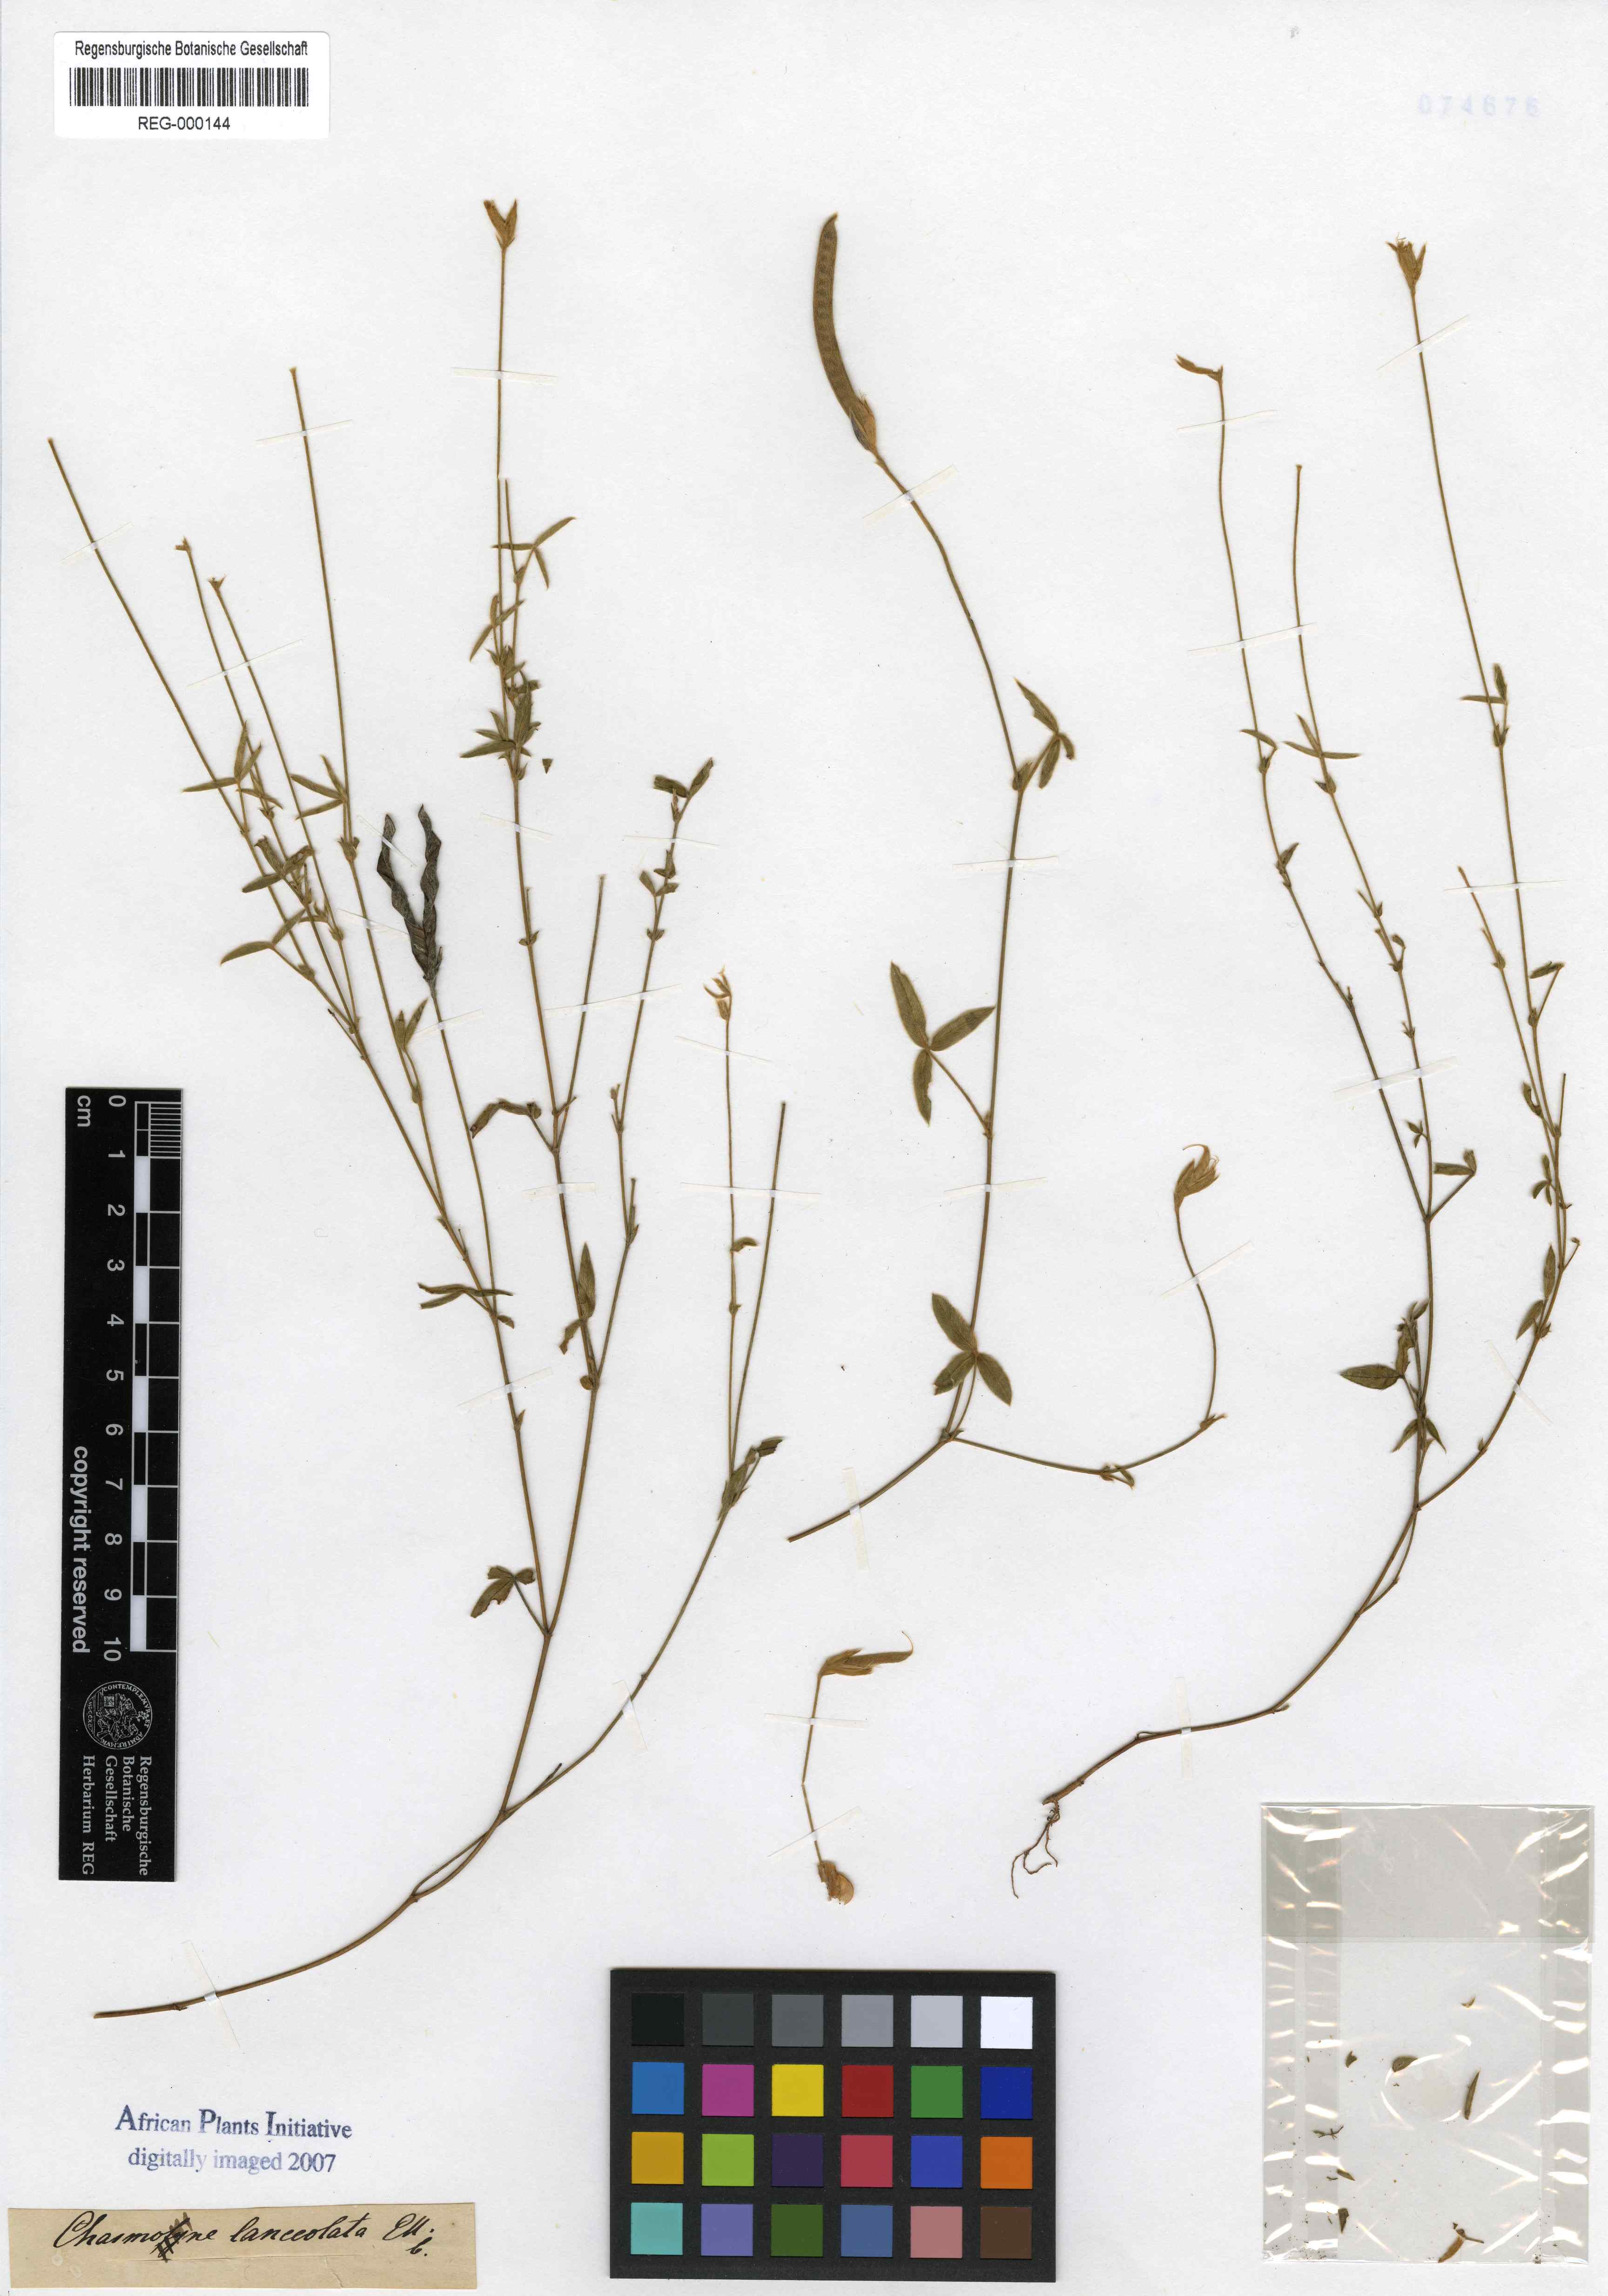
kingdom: Plantae
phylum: Tracheophyta
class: Magnoliopsida
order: Fabales
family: Fabaceae
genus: Argyrolobium
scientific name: Argyrolobium lunare
